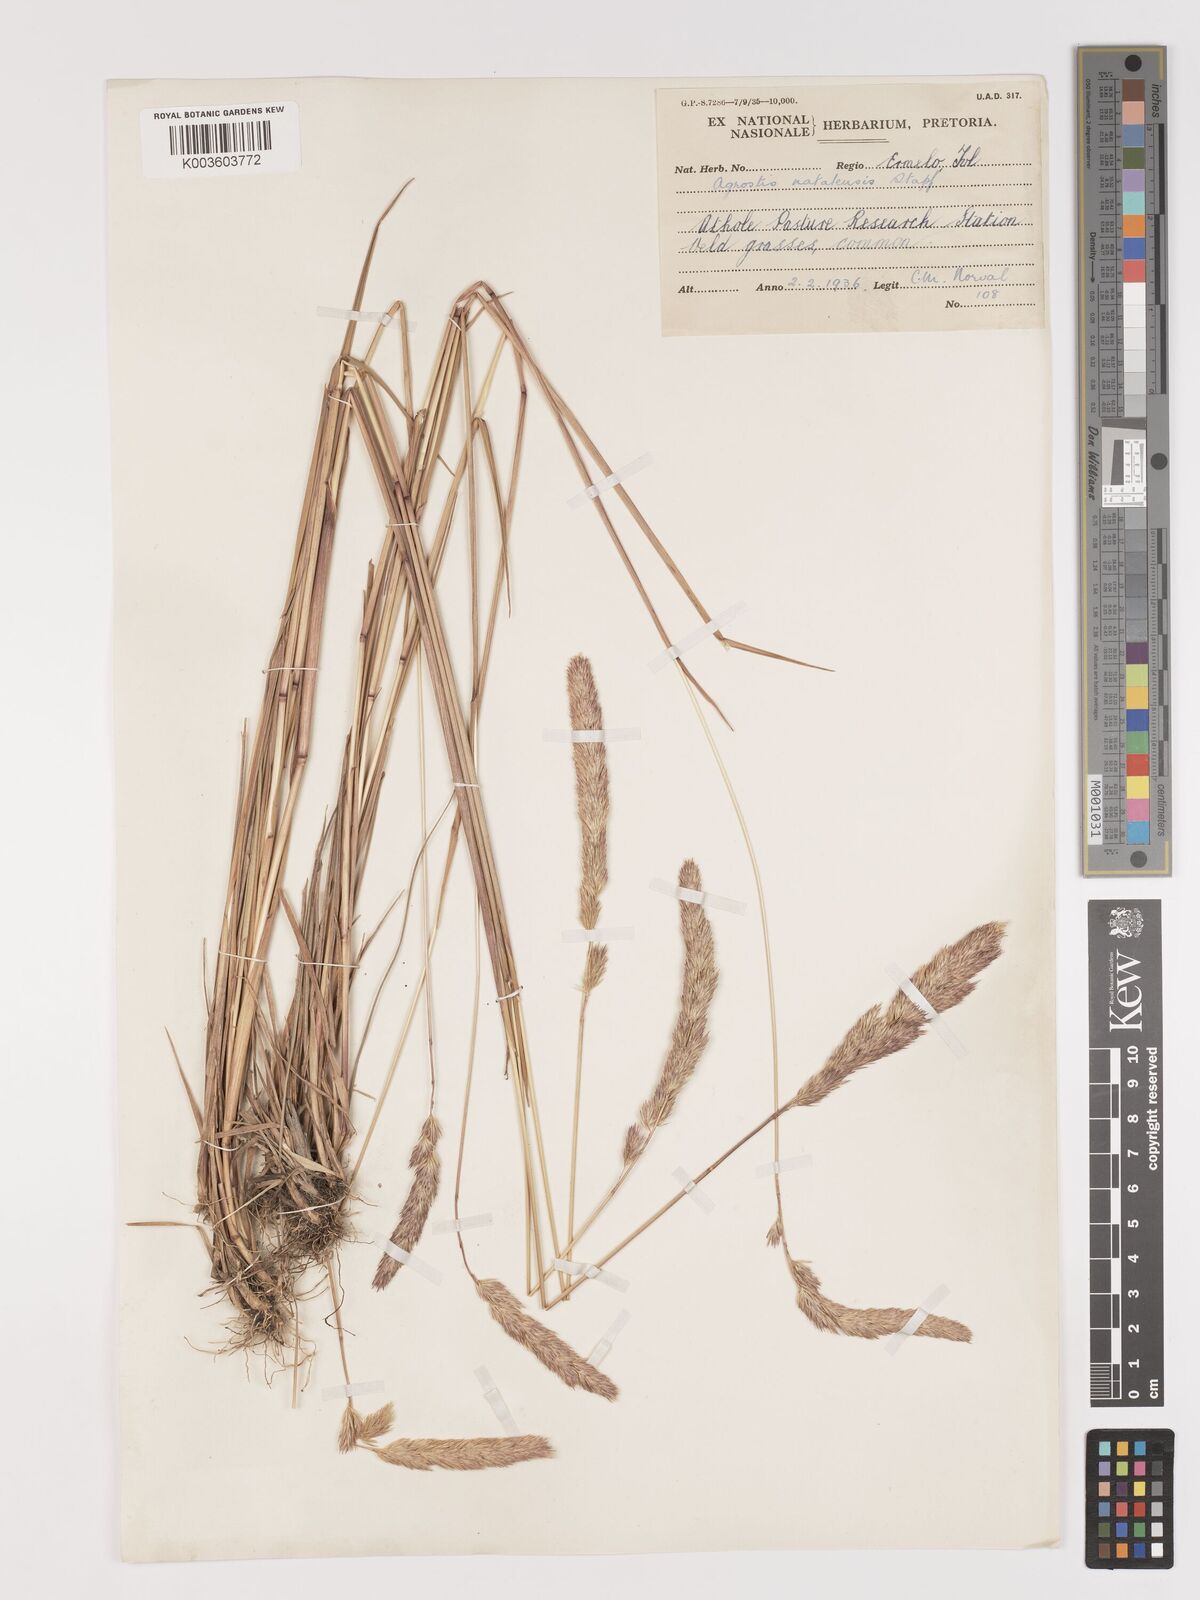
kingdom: Plantae
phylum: Tracheophyta
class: Liliopsida
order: Poales
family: Poaceae
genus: Agrostis
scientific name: Agrostis continuata
